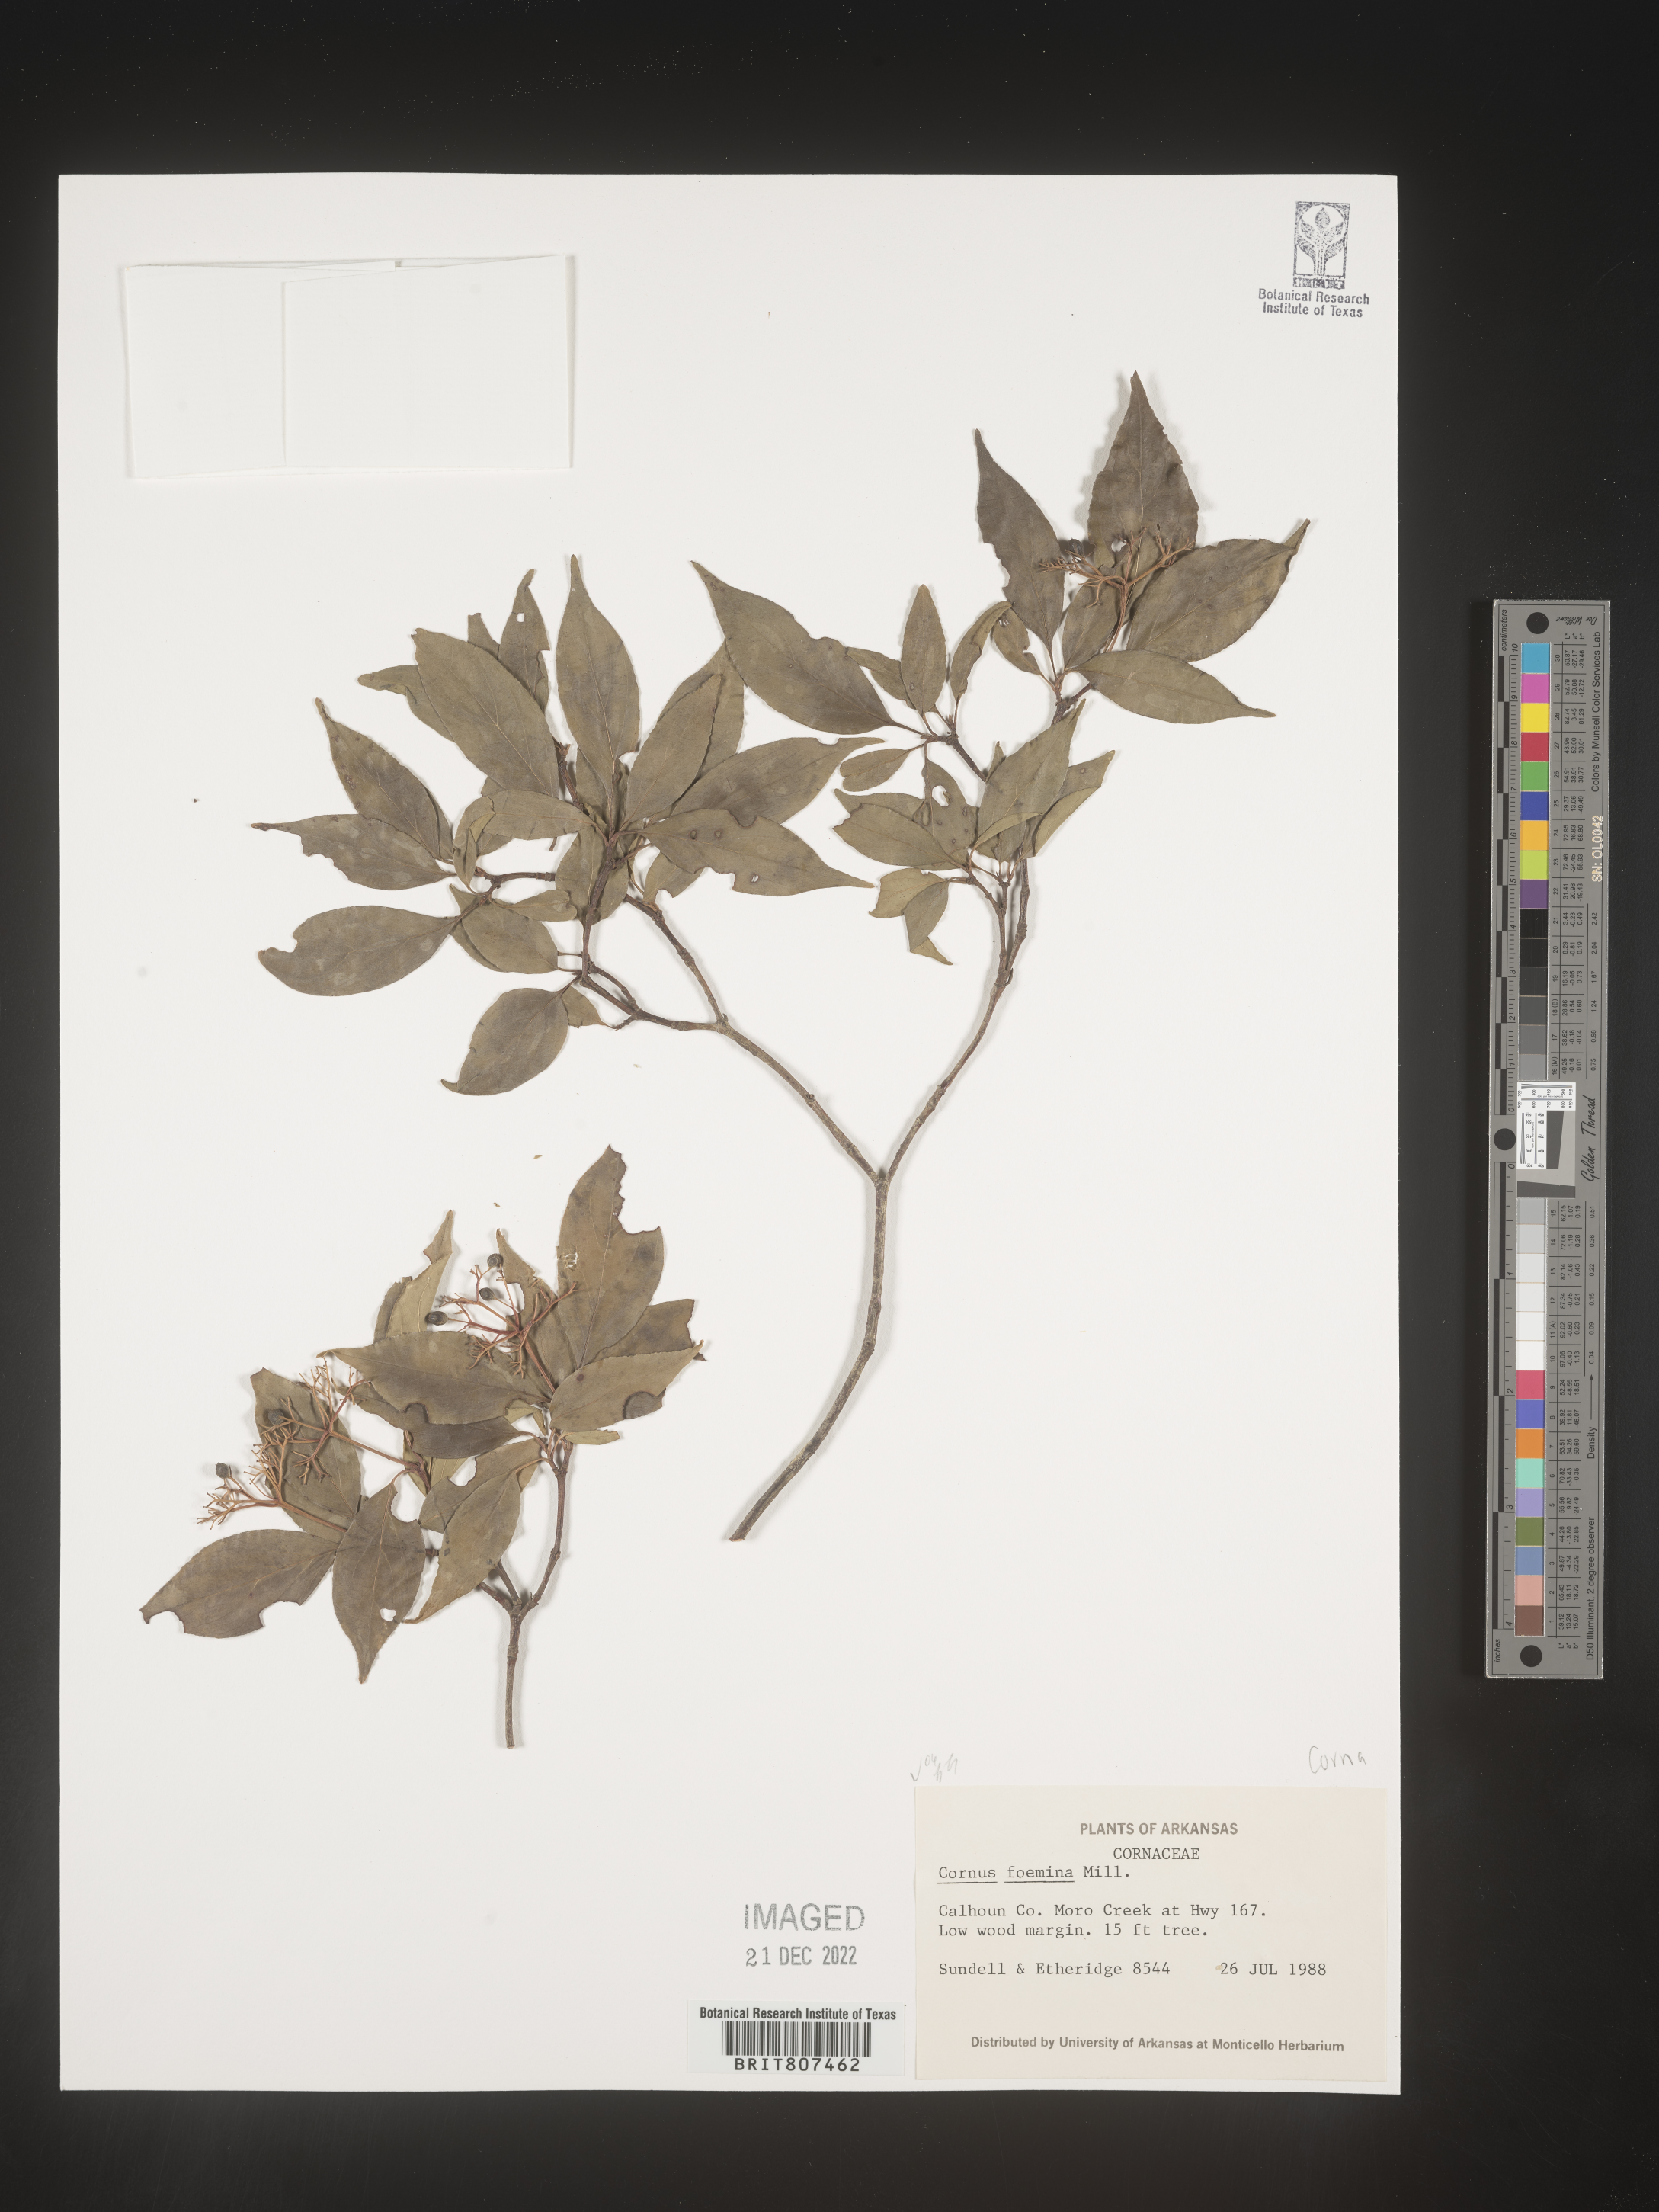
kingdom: Plantae
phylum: Tracheophyta
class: Magnoliopsida
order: Cornales
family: Cornaceae
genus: Cornus
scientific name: Cornus foemina
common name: Swamp dogwood
